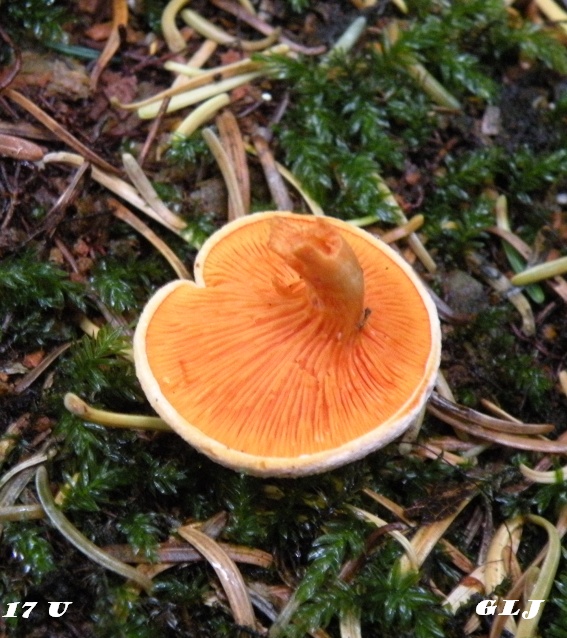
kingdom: Fungi
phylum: Basidiomycota
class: Agaricomycetes
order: Boletales
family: Hygrophoropsidaceae
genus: Hygrophoropsis
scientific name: Hygrophoropsis aurantiaca
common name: almindelig orangekantarel
